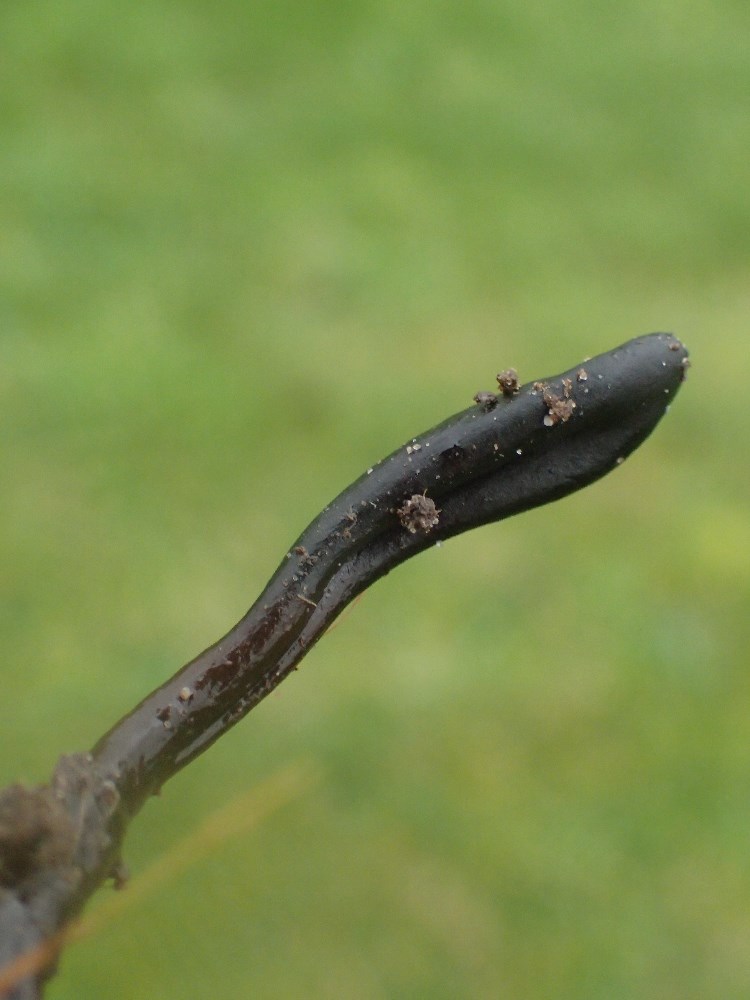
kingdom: Fungi
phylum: Ascomycota
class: Geoglossomycetes
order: Geoglossales
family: Geoglossaceae
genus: Glutinoglossum
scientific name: Glutinoglossum glutinosum
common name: slimet jordtunge
